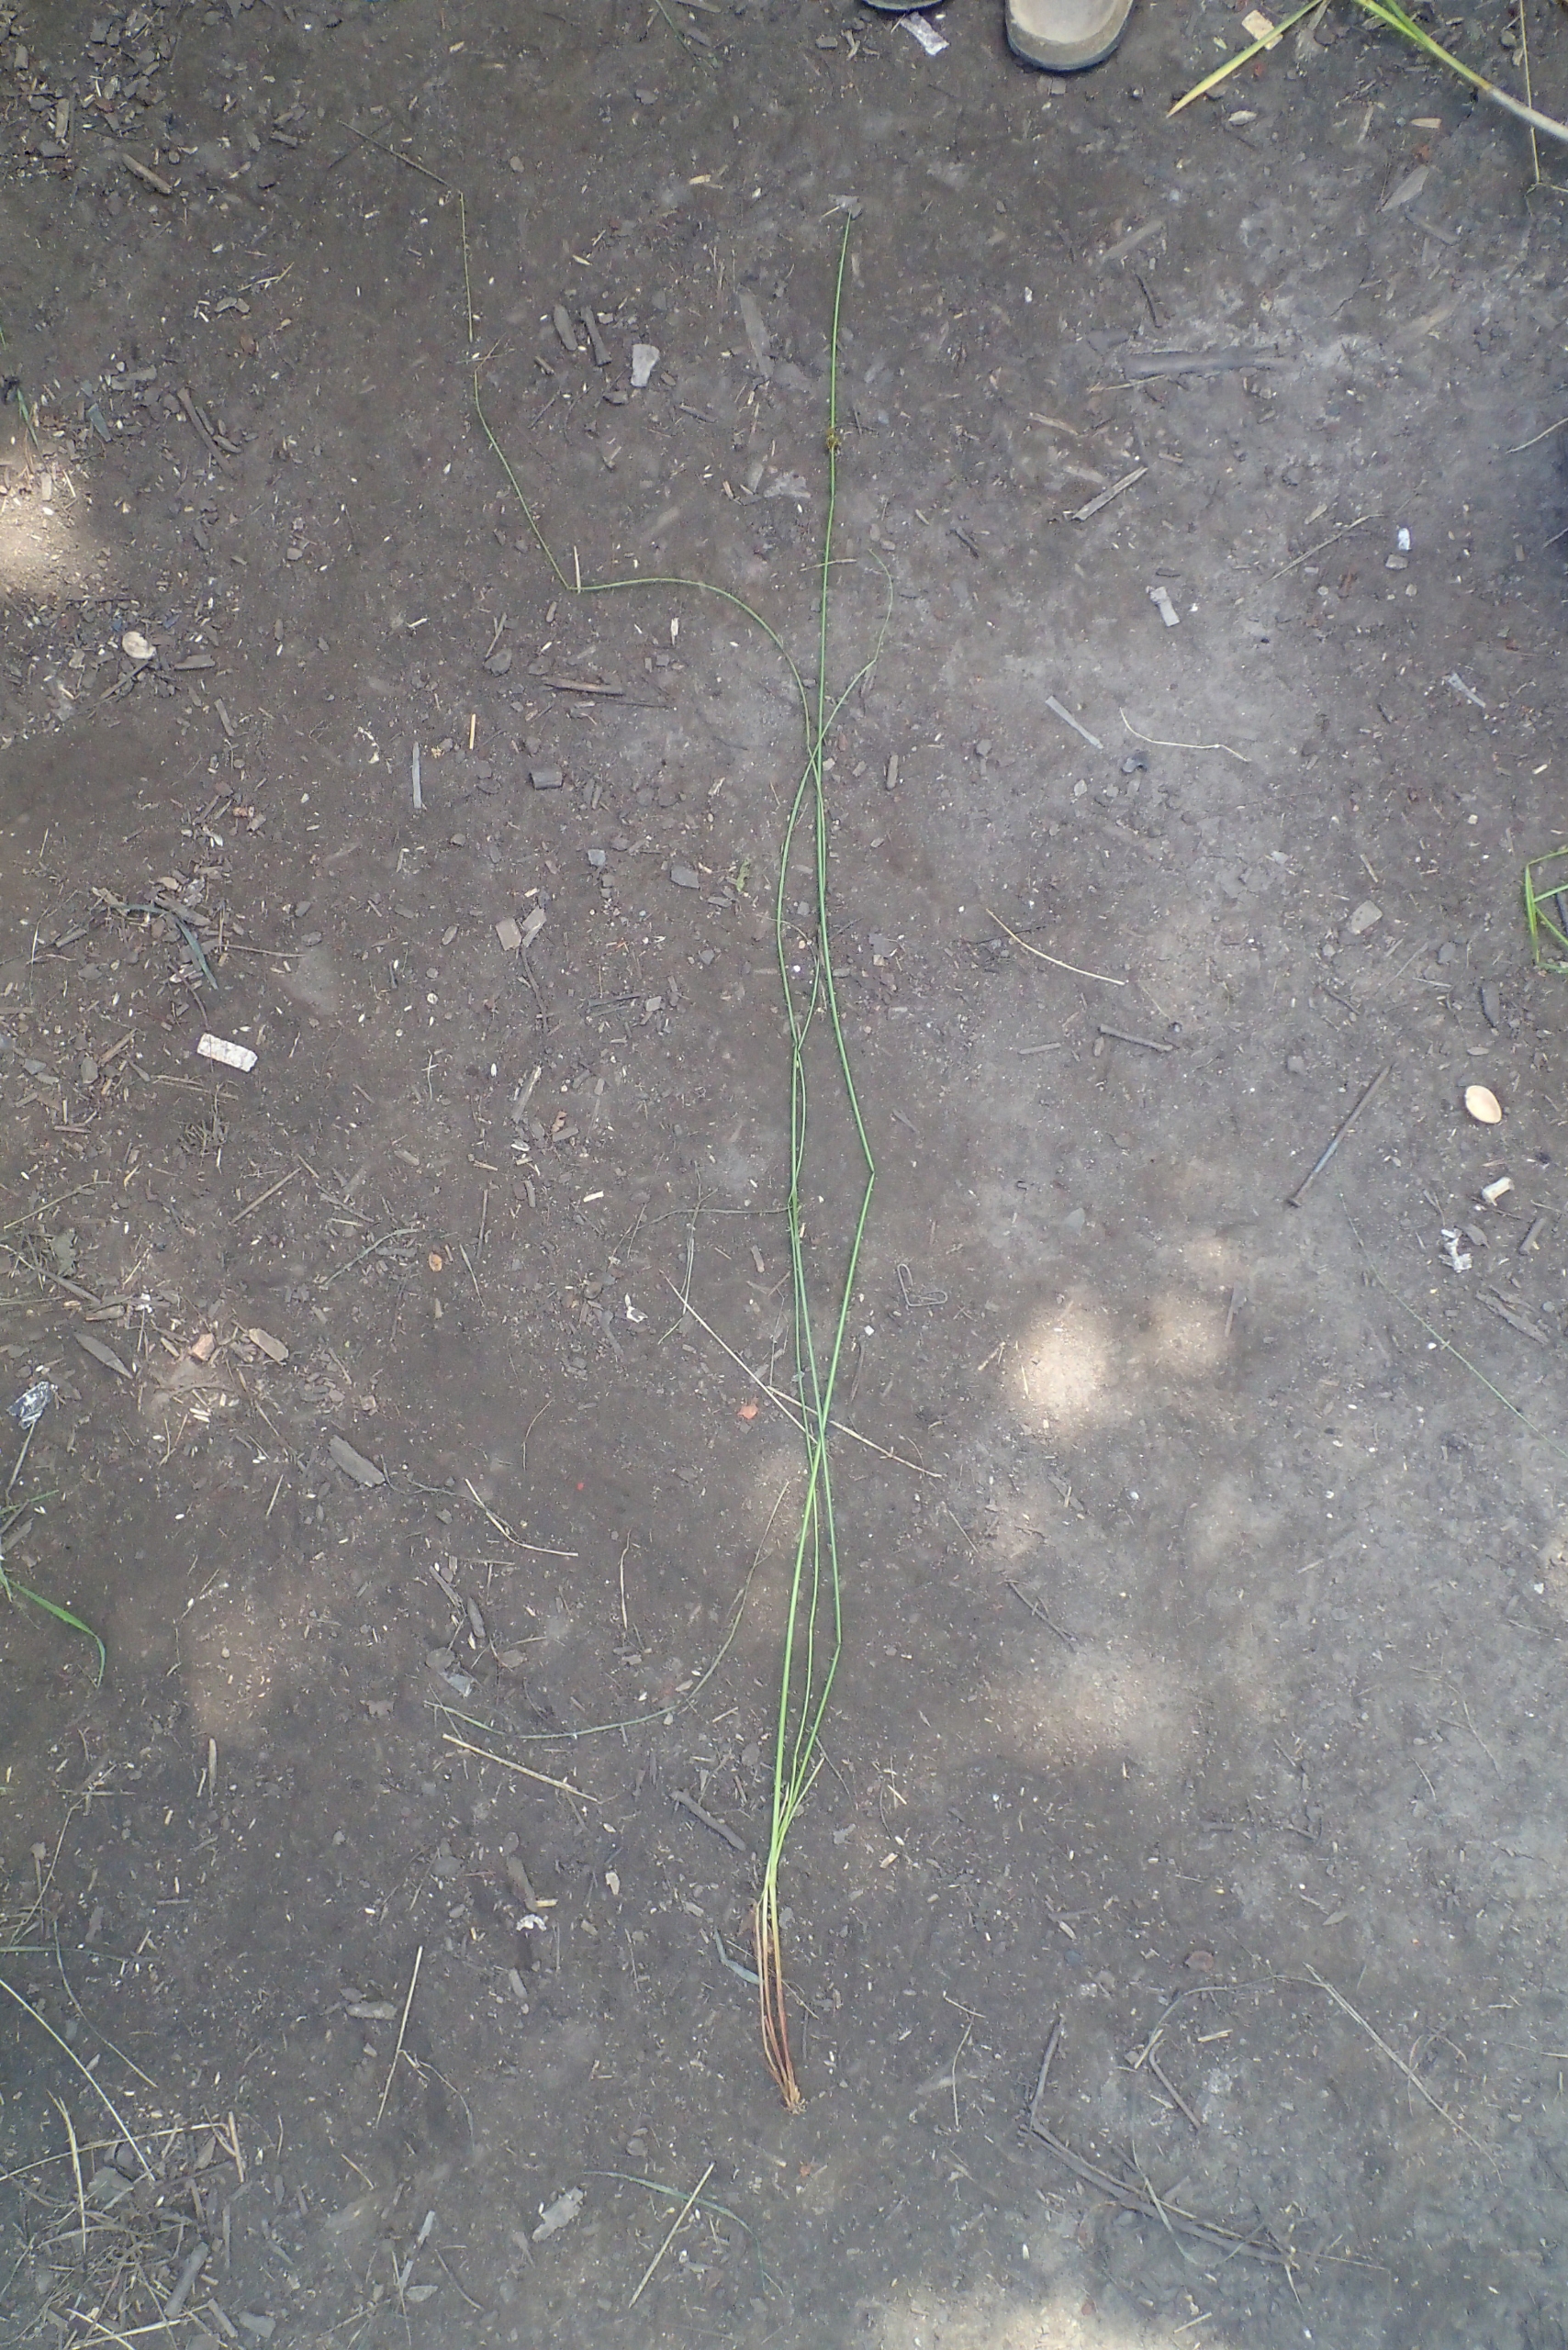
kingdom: Plantae
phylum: Tracheophyta
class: Liliopsida
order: Poales
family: Juncaceae
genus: Juncus
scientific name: Juncus effusus
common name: Lyse-siv
